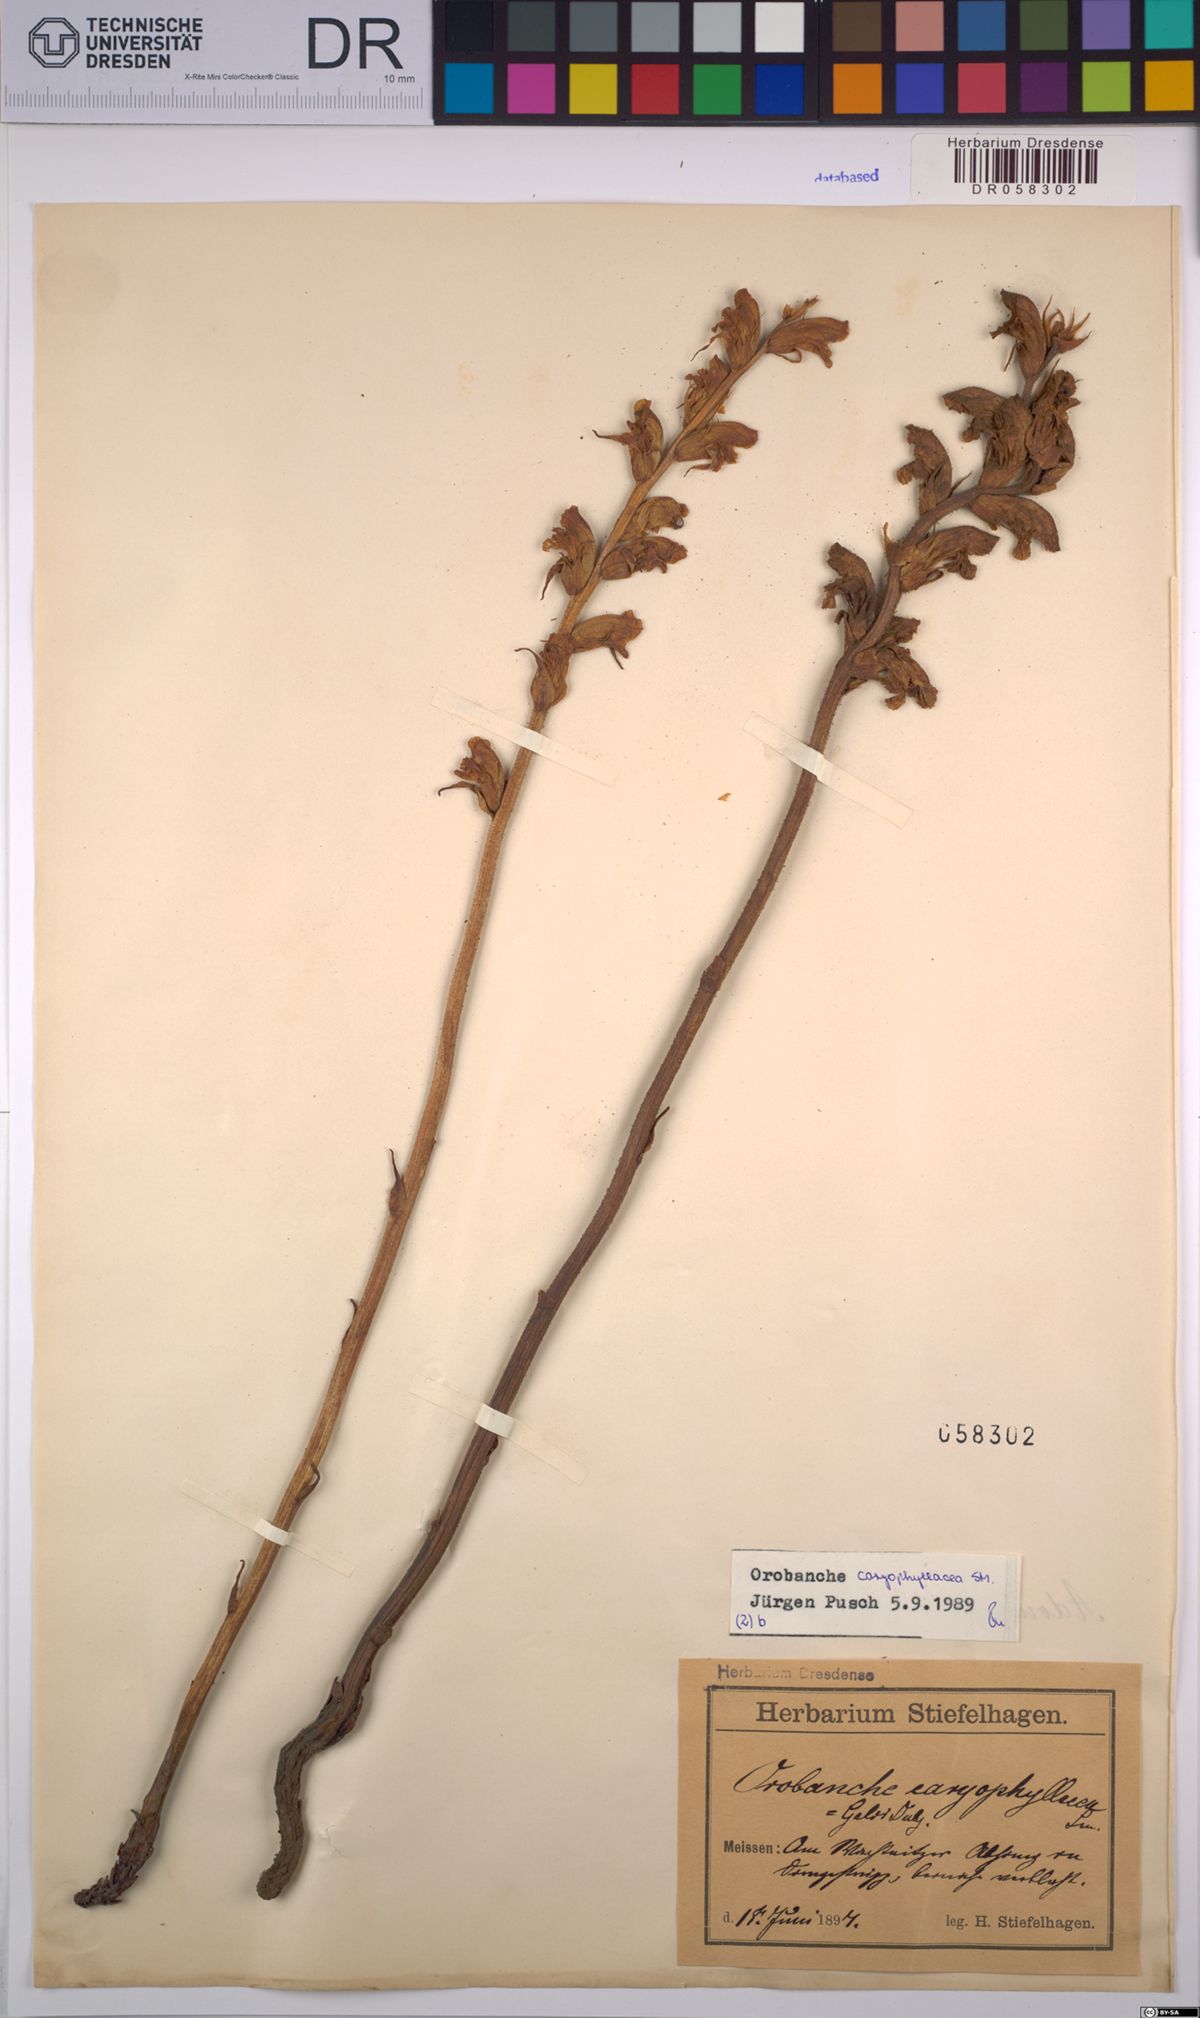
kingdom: Plantae
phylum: Tracheophyta
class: Magnoliopsida
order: Lamiales
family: Orobanchaceae
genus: Orobanche
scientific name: Orobanche caryophyllacea
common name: Bedstraw broomrape
